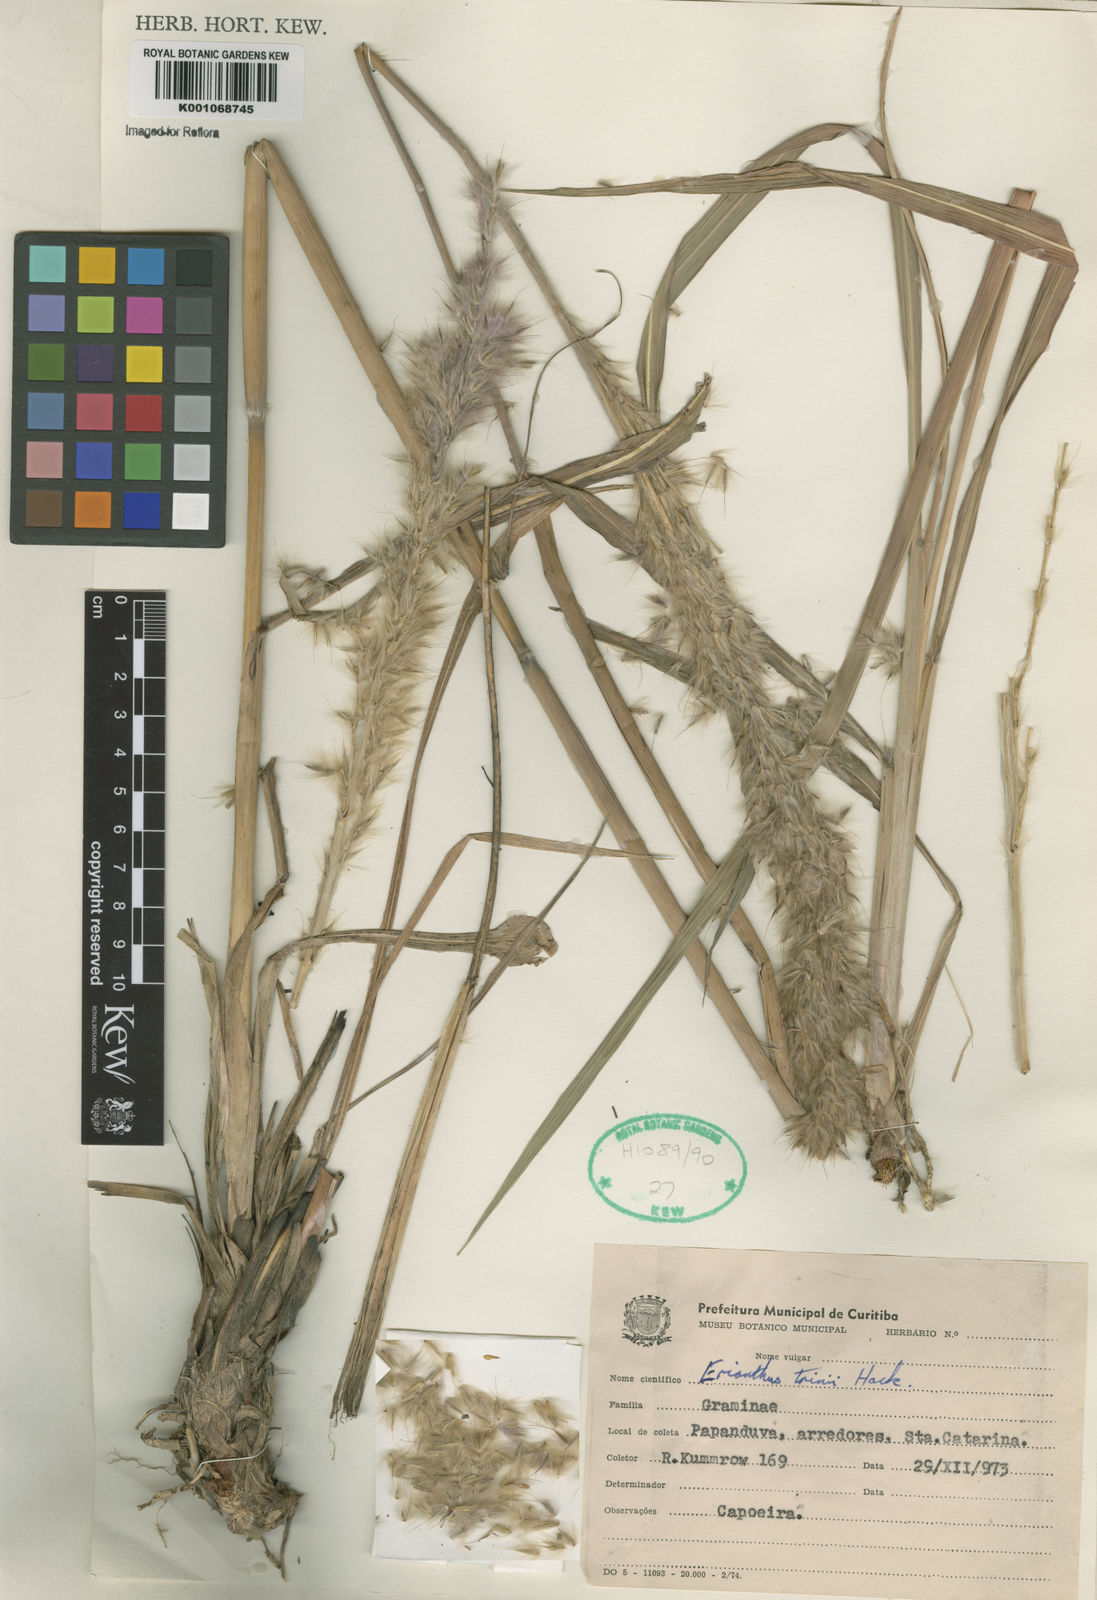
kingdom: Plantae
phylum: Tracheophyta
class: Liliopsida
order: Poales
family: Poaceae
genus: Erianthus
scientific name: Erianthus trinii
